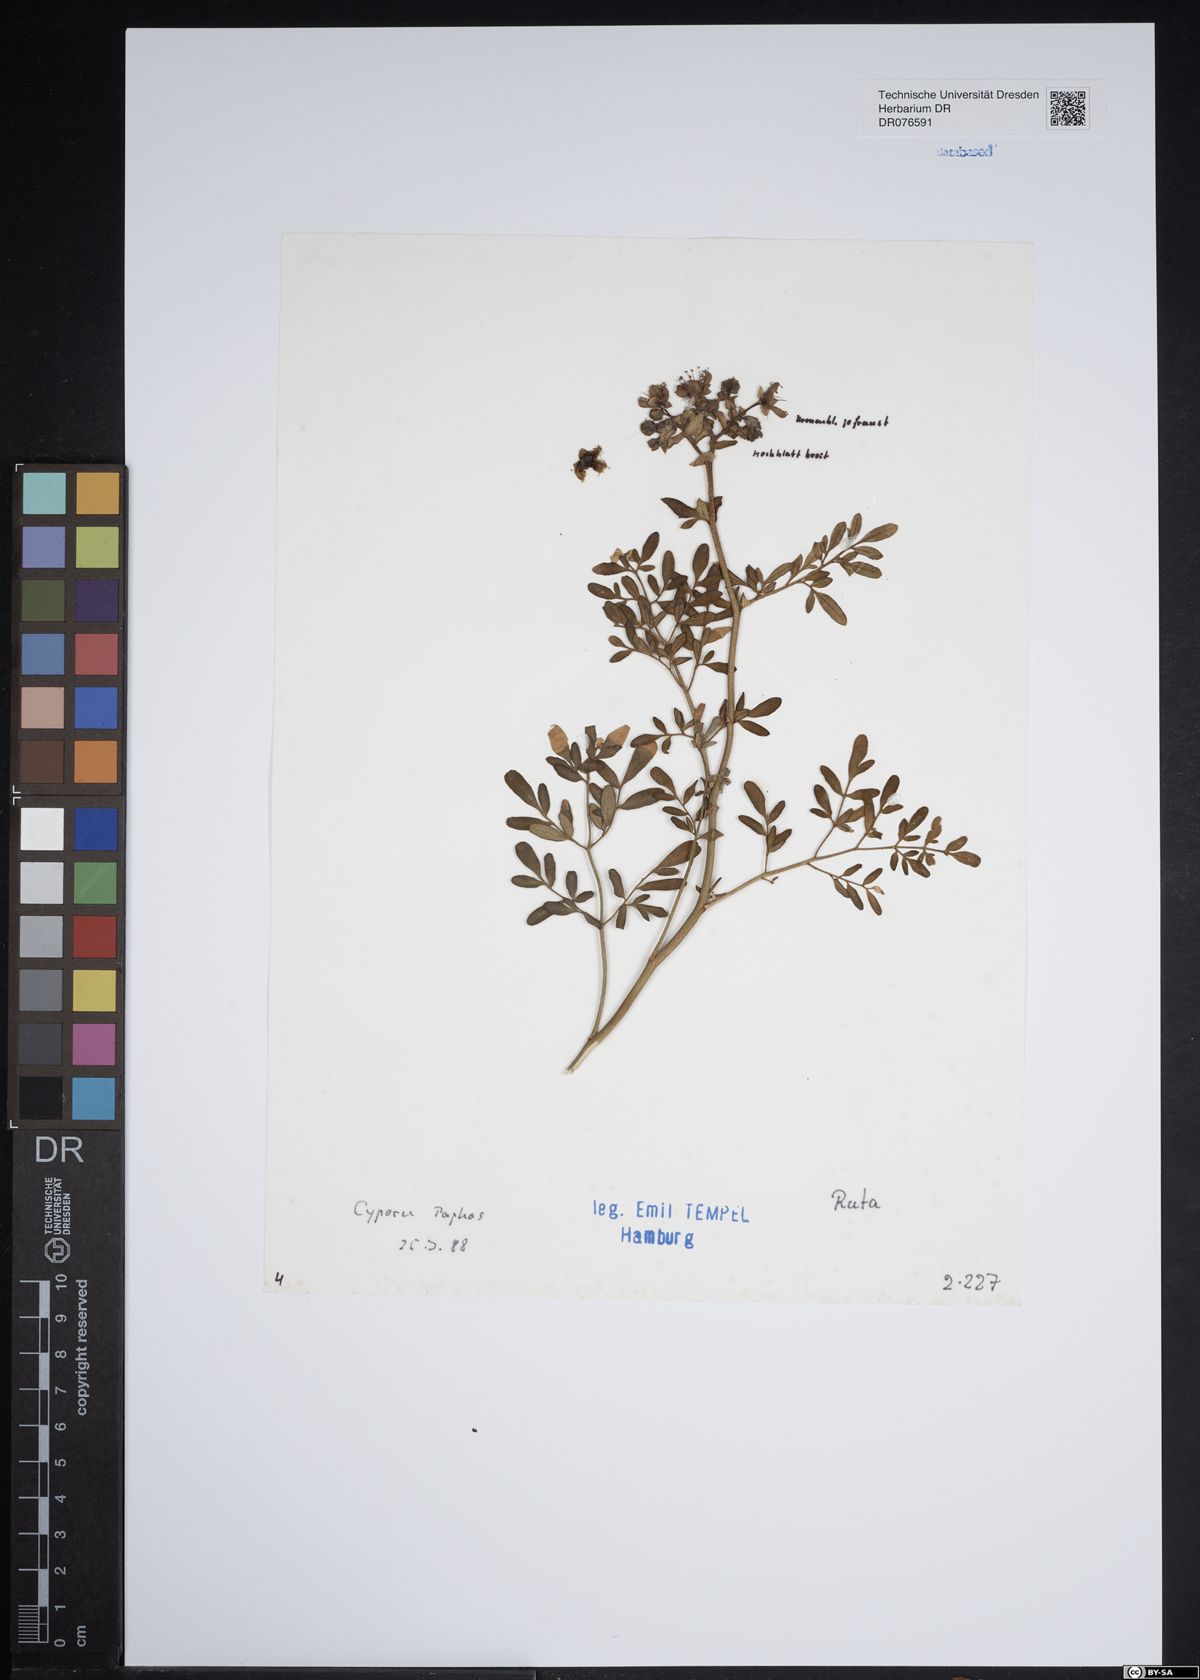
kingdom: Plantae
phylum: Tracheophyta
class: Magnoliopsida
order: Sapindales
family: Rutaceae
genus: Ruta
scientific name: Ruta
